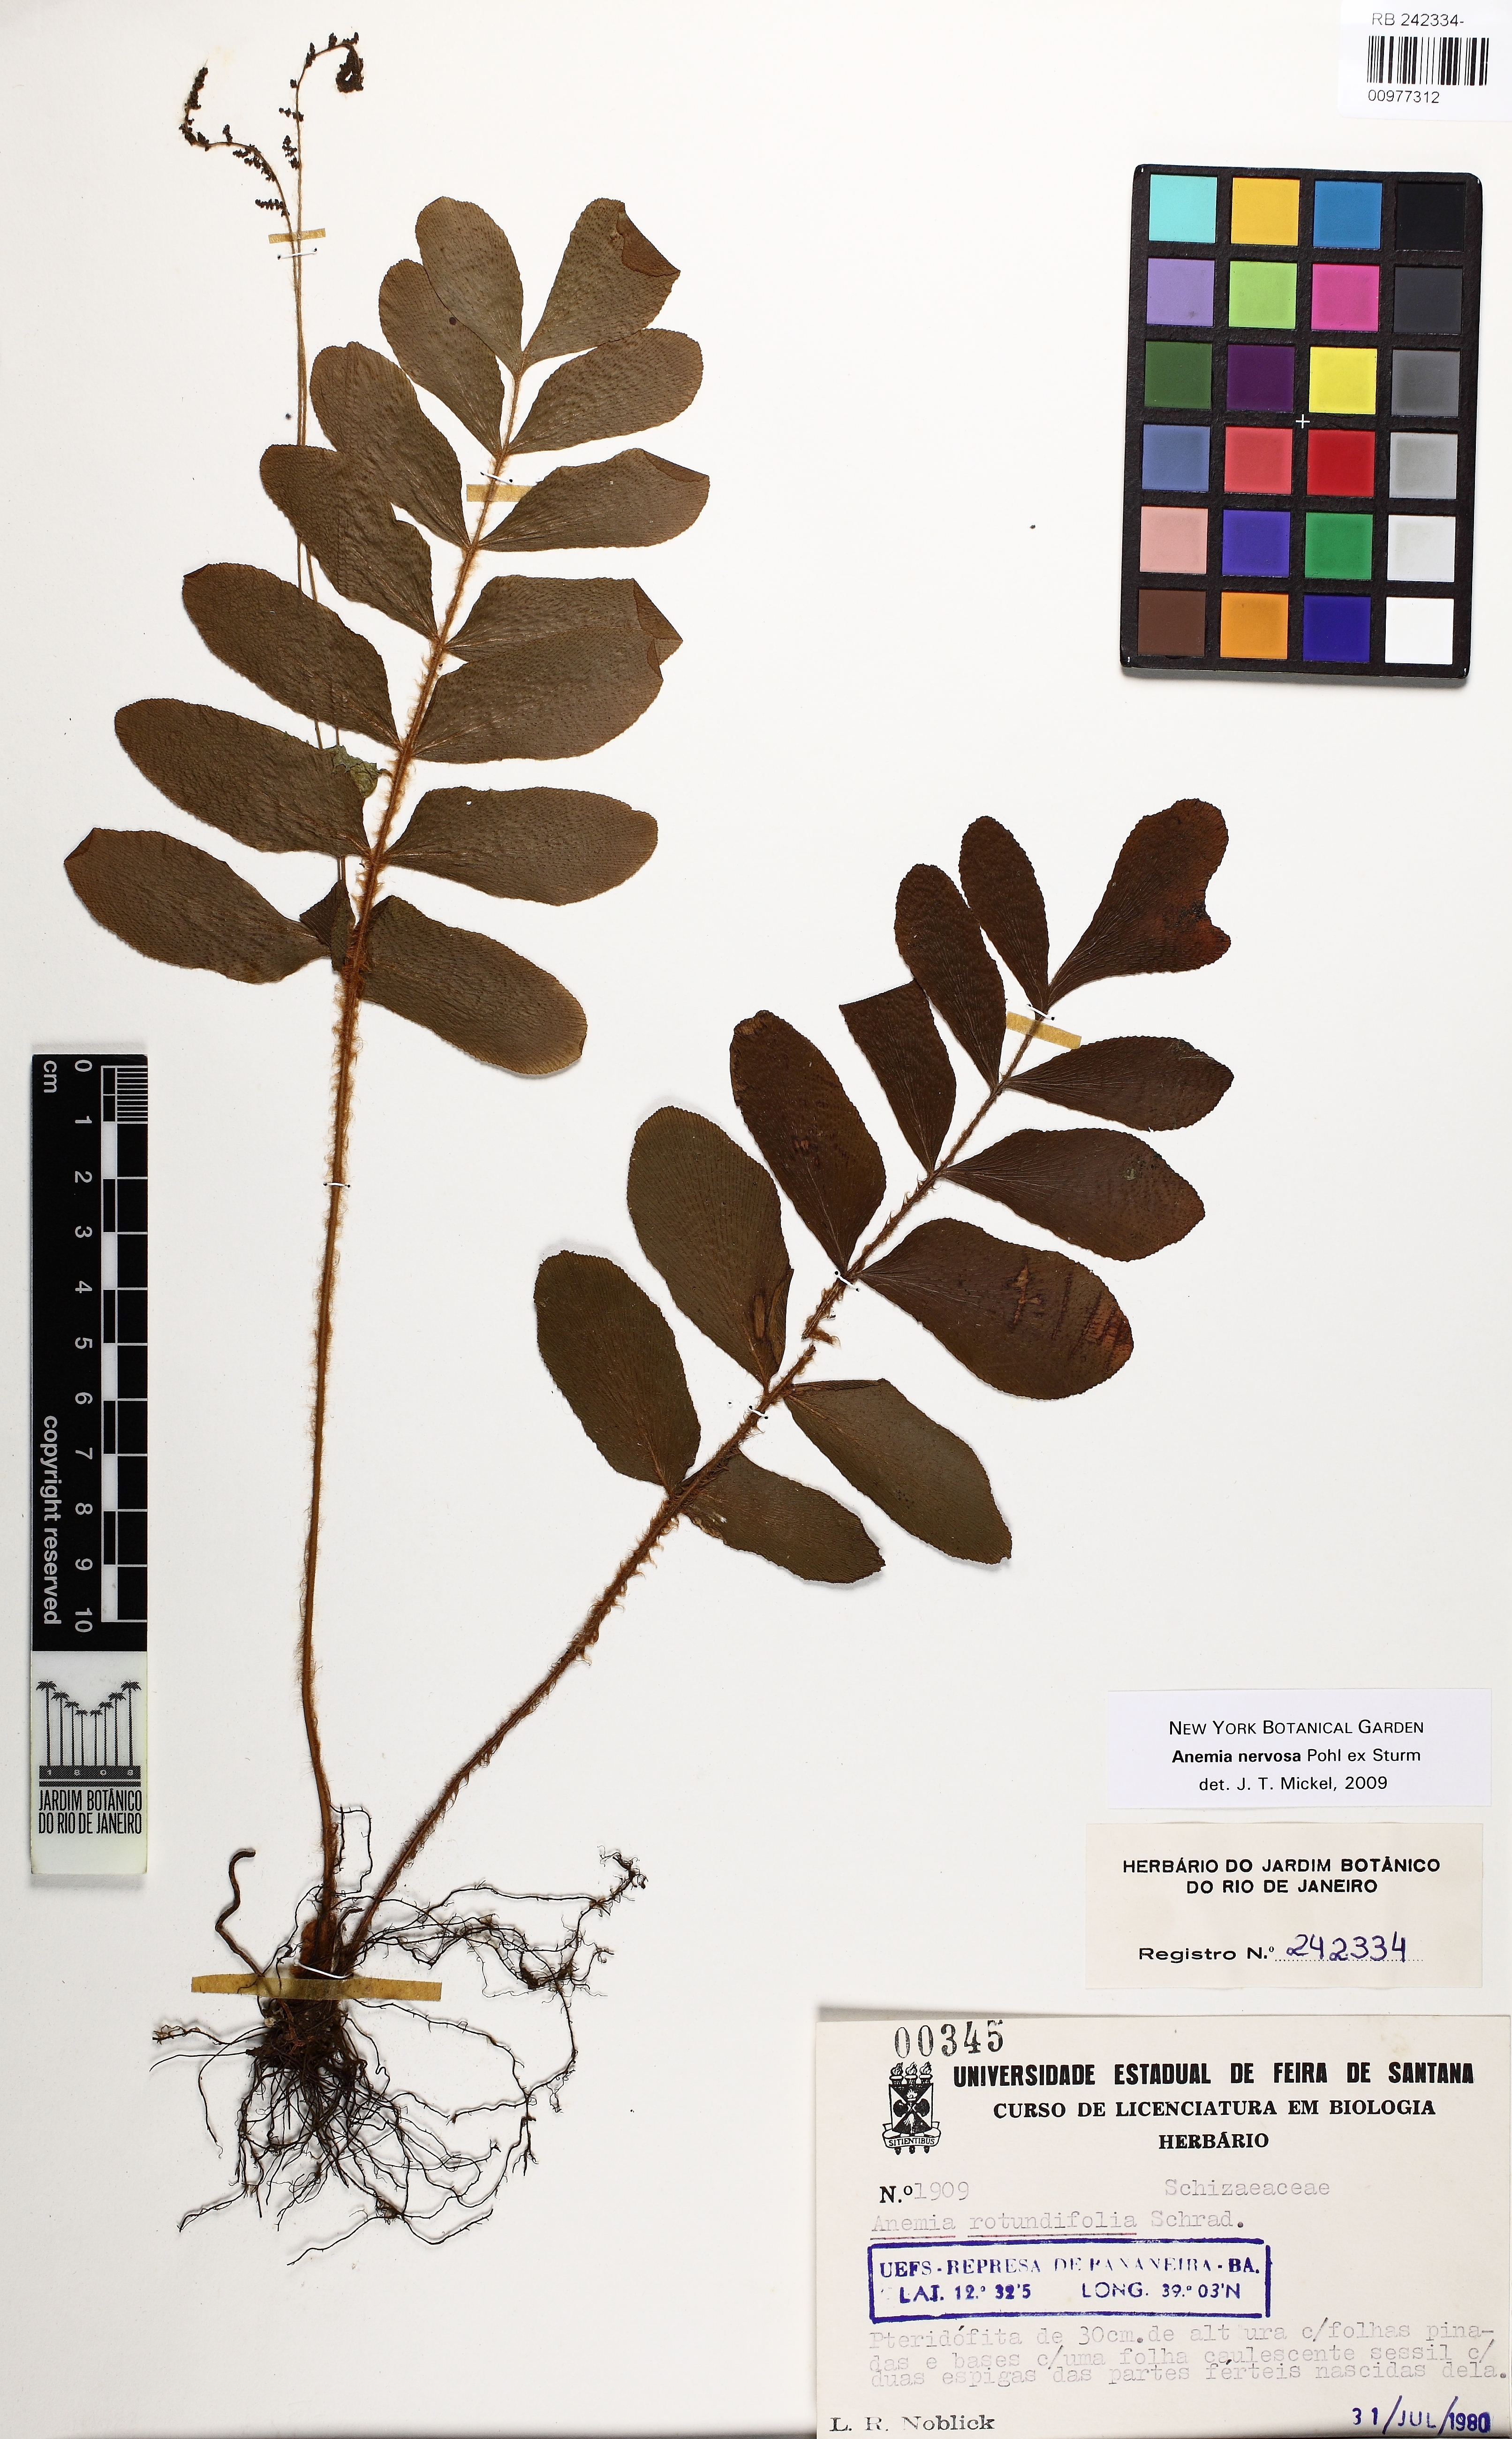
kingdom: Plantae
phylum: Tracheophyta
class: Polypodiopsida
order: Schizaeales
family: Anemiaceae
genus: Anemia
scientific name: Anemia nervosa
